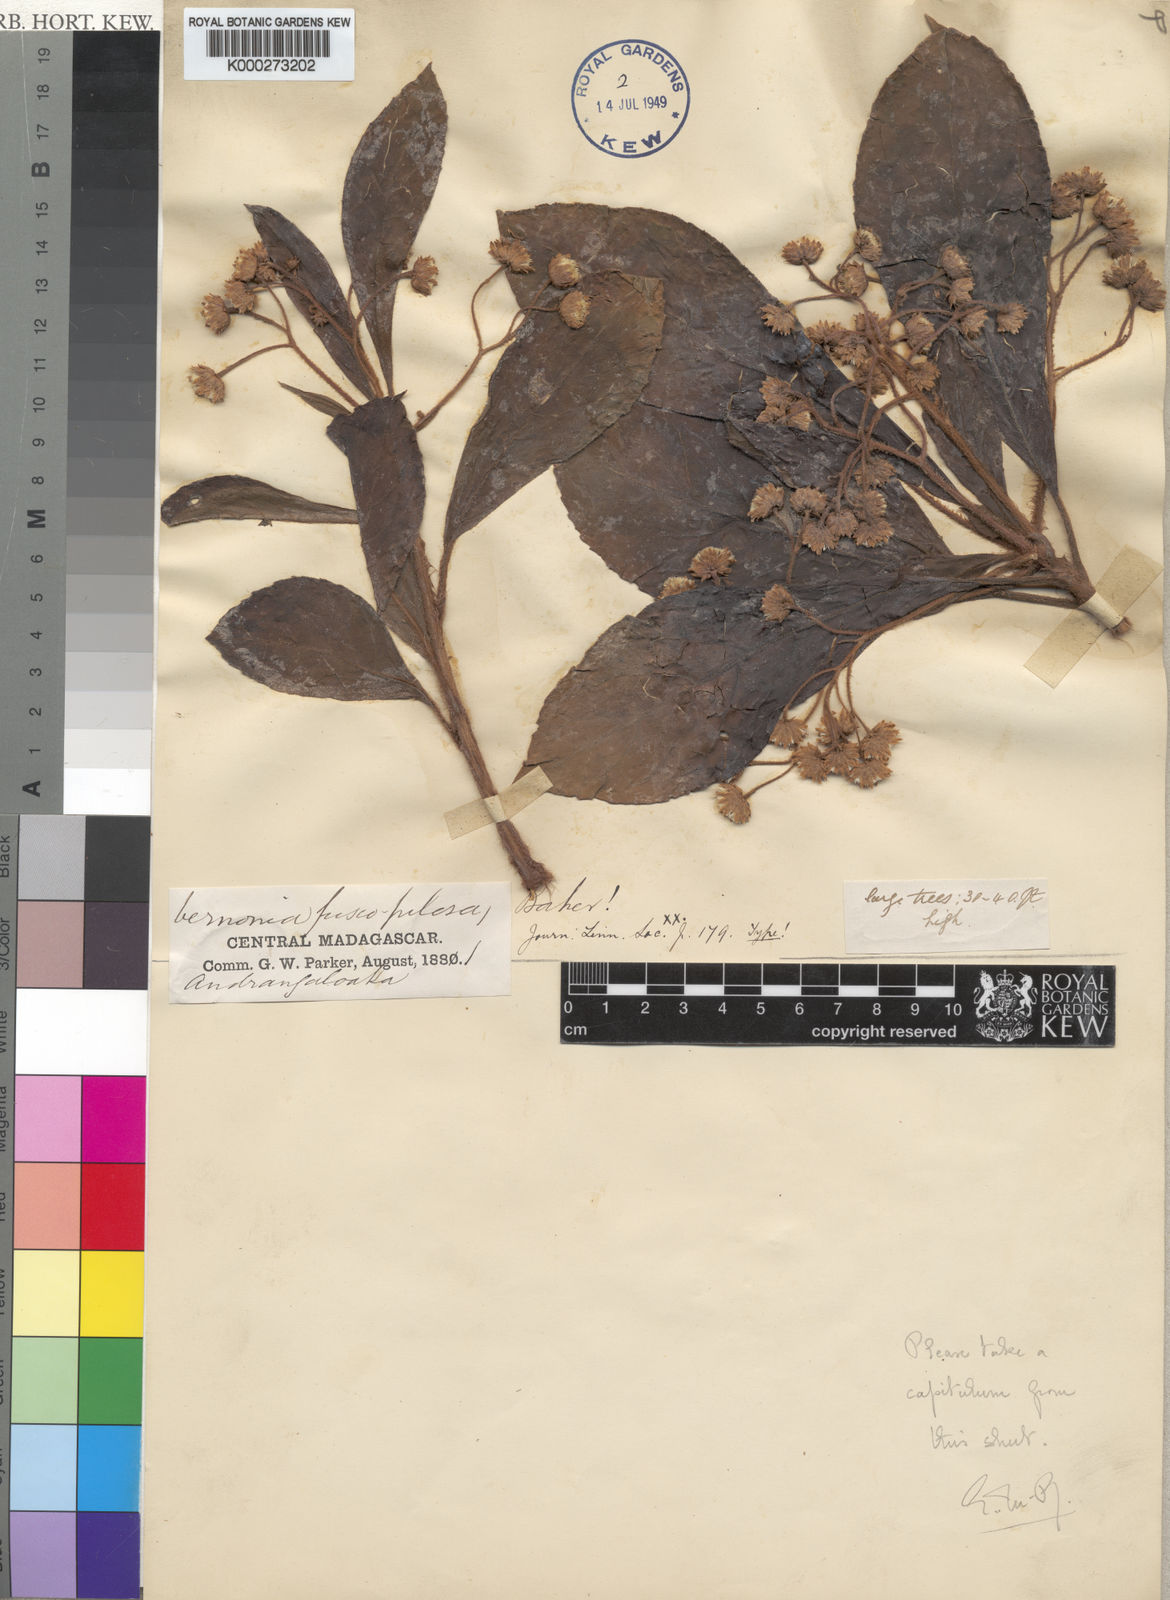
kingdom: Plantae
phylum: Tracheophyta
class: Magnoliopsida
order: Asterales
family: Asteraceae
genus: Vernonia
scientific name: Vernonia pachyclada
